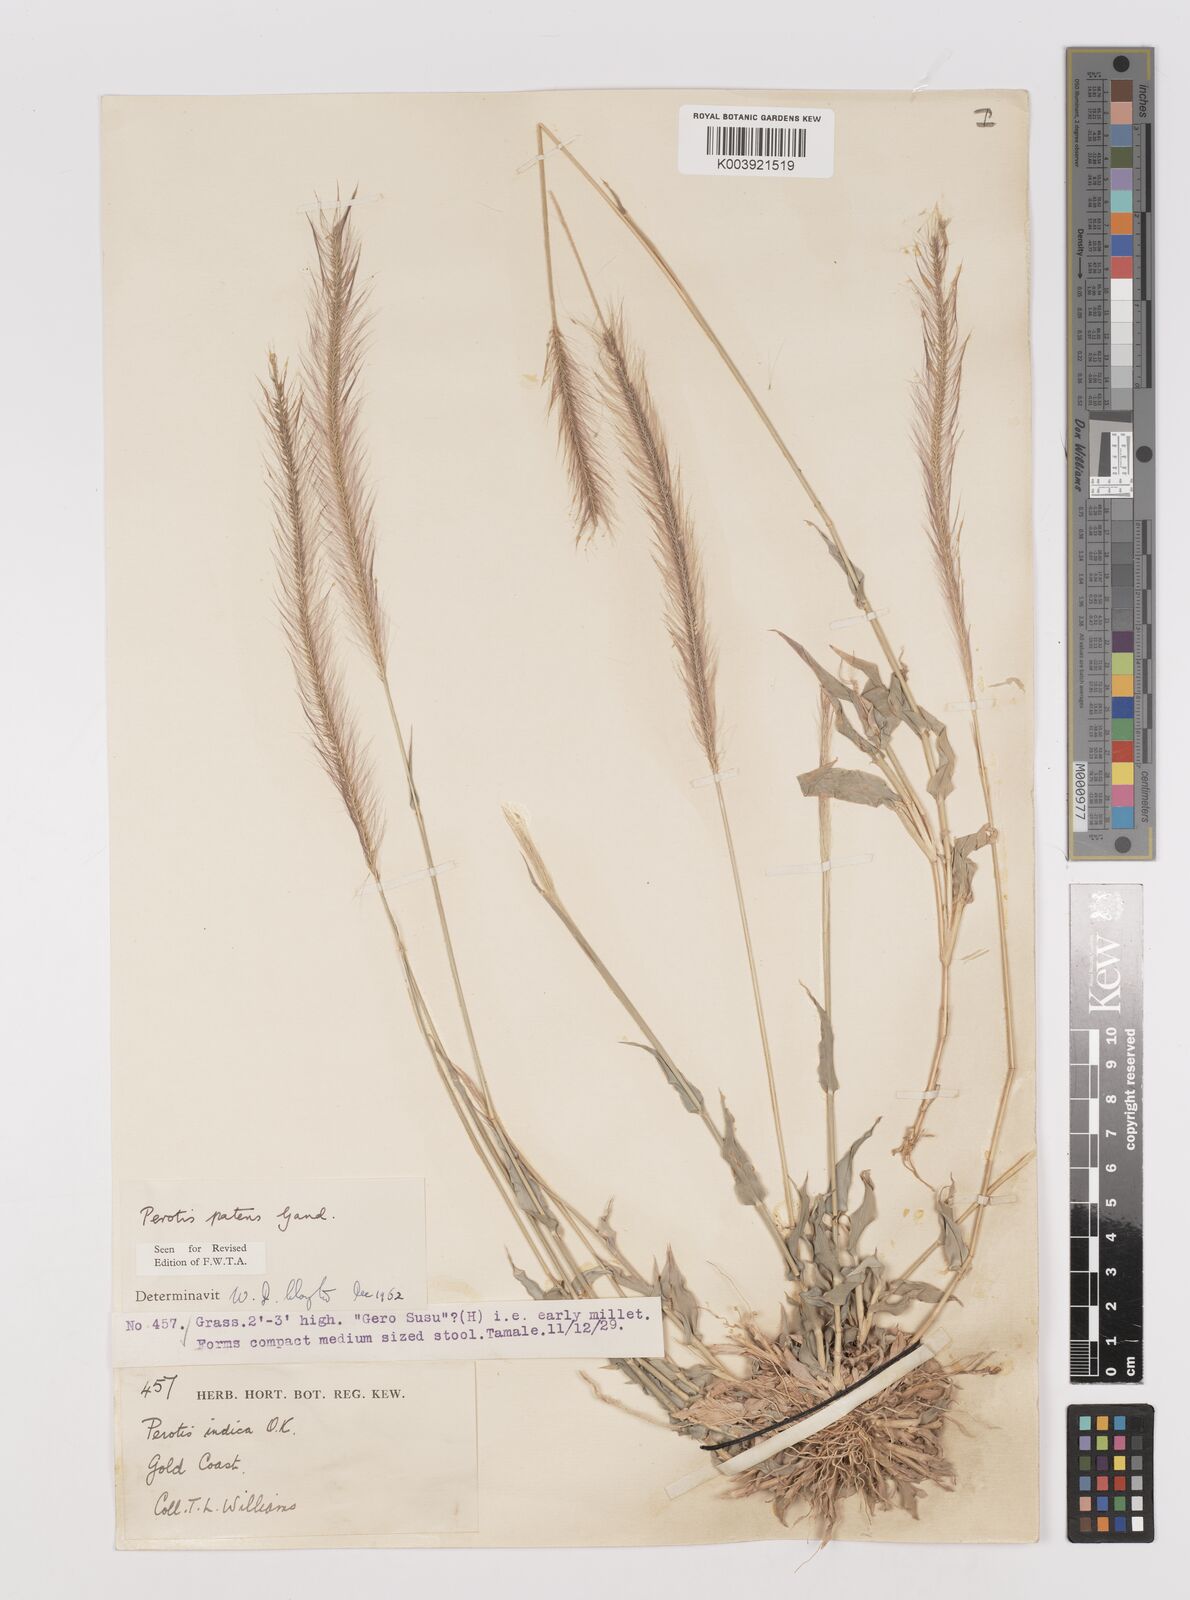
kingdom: Plantae
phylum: Tracheophyta
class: Liliopsida
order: Poales
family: Poaceae
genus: Perotis
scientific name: Perotis patens
